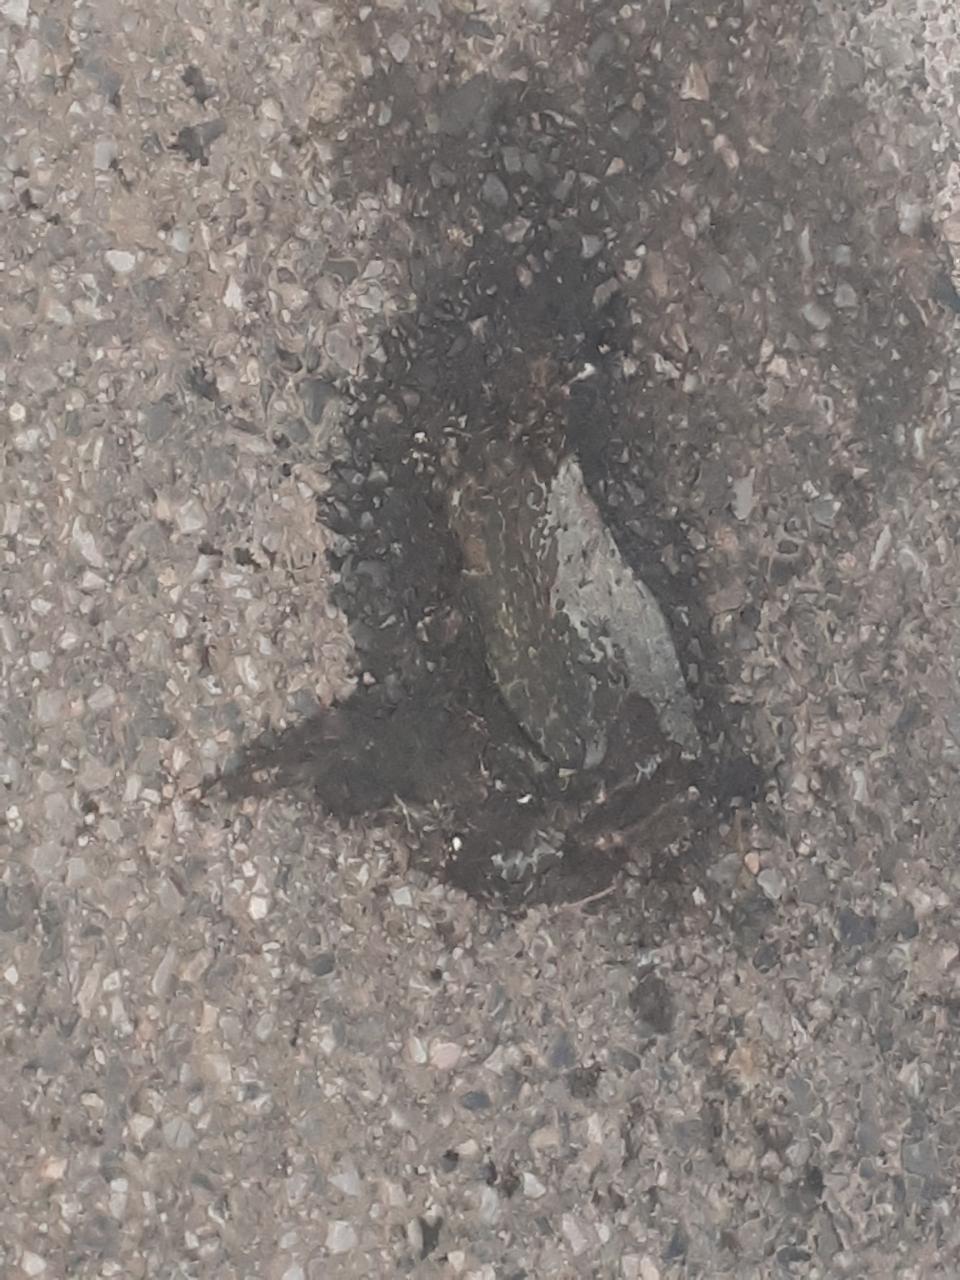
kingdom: Animalia
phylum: Chordata
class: Amphibia
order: Anura
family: Bufonidae
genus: Bufotes
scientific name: Bufotes viridis
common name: European green toad
